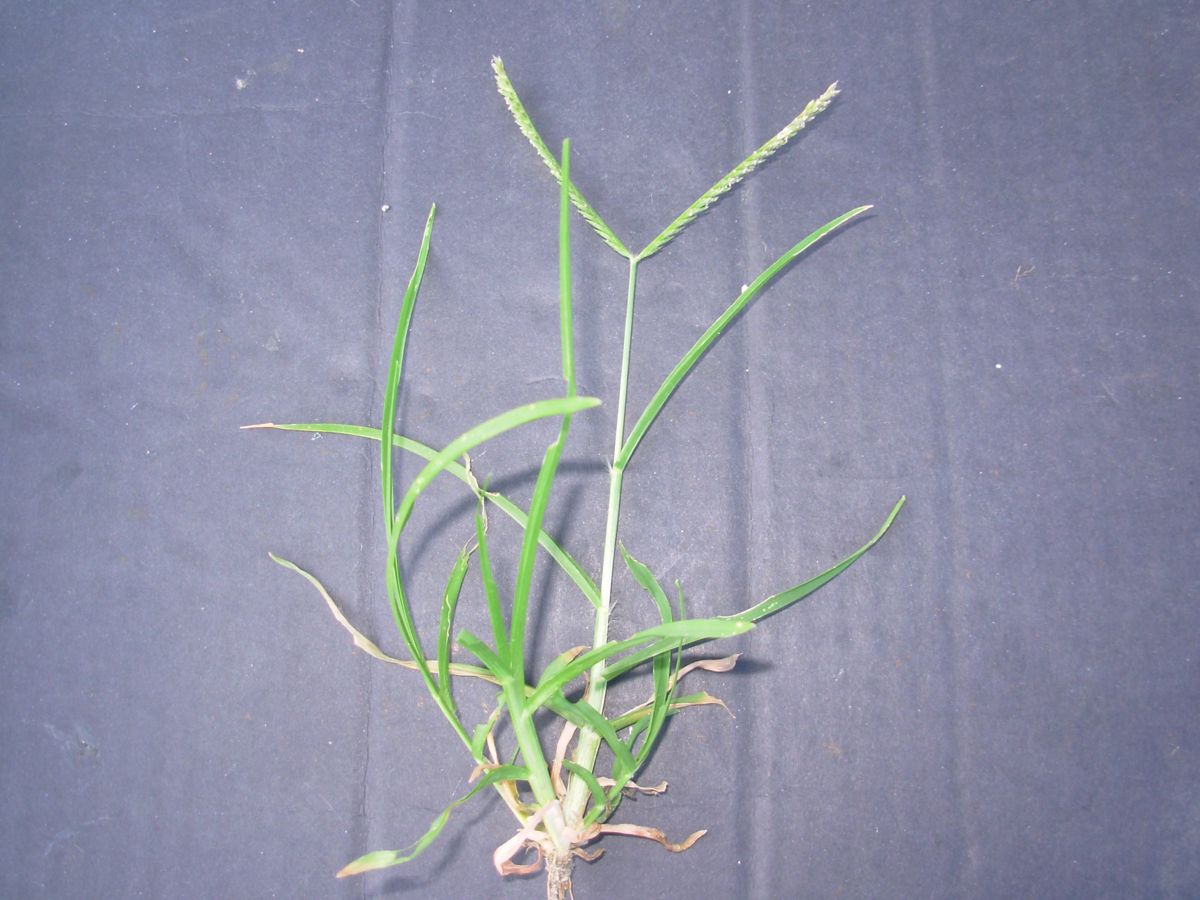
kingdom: Plantae
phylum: Tracheophyta
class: Liliopsida
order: Poales
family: Poaceae
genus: Eleusine
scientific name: Eleusine indica
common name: Yard-grass
